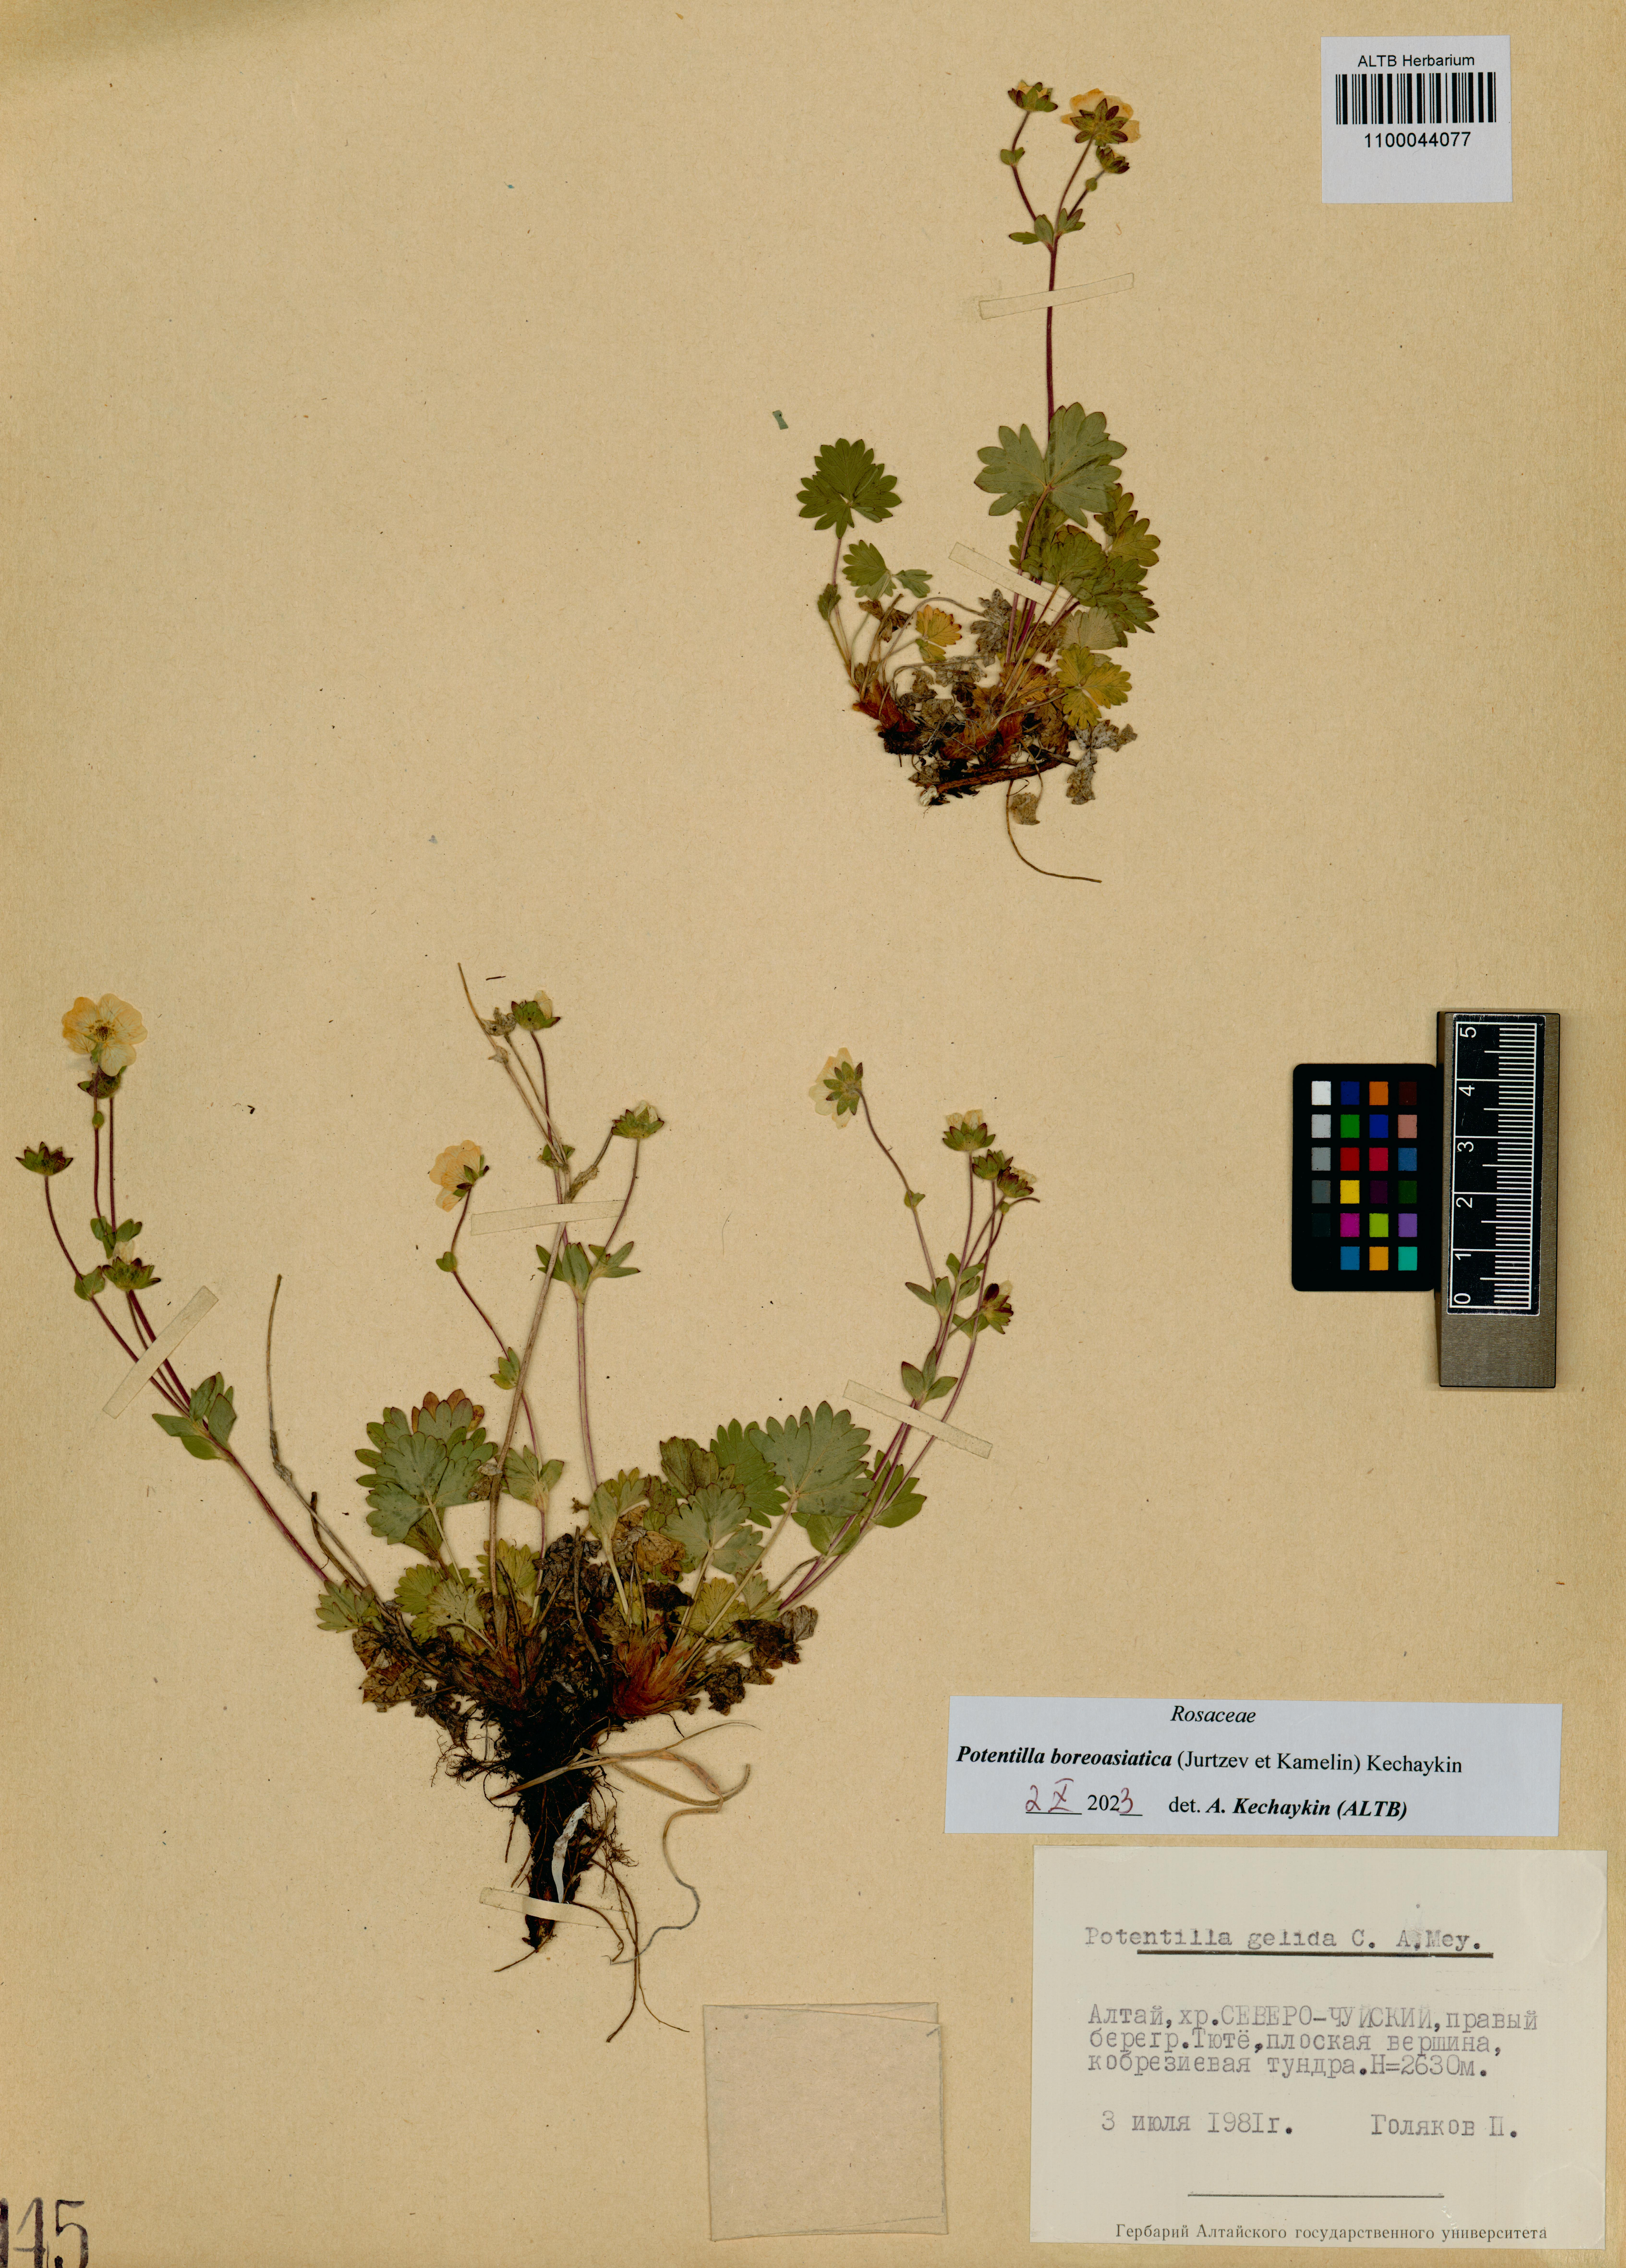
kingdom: Plantae
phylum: Tracheophyta
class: Magnoliopsida
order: Rosales
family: Rosaceae
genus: Potentilla
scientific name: Potentilla
